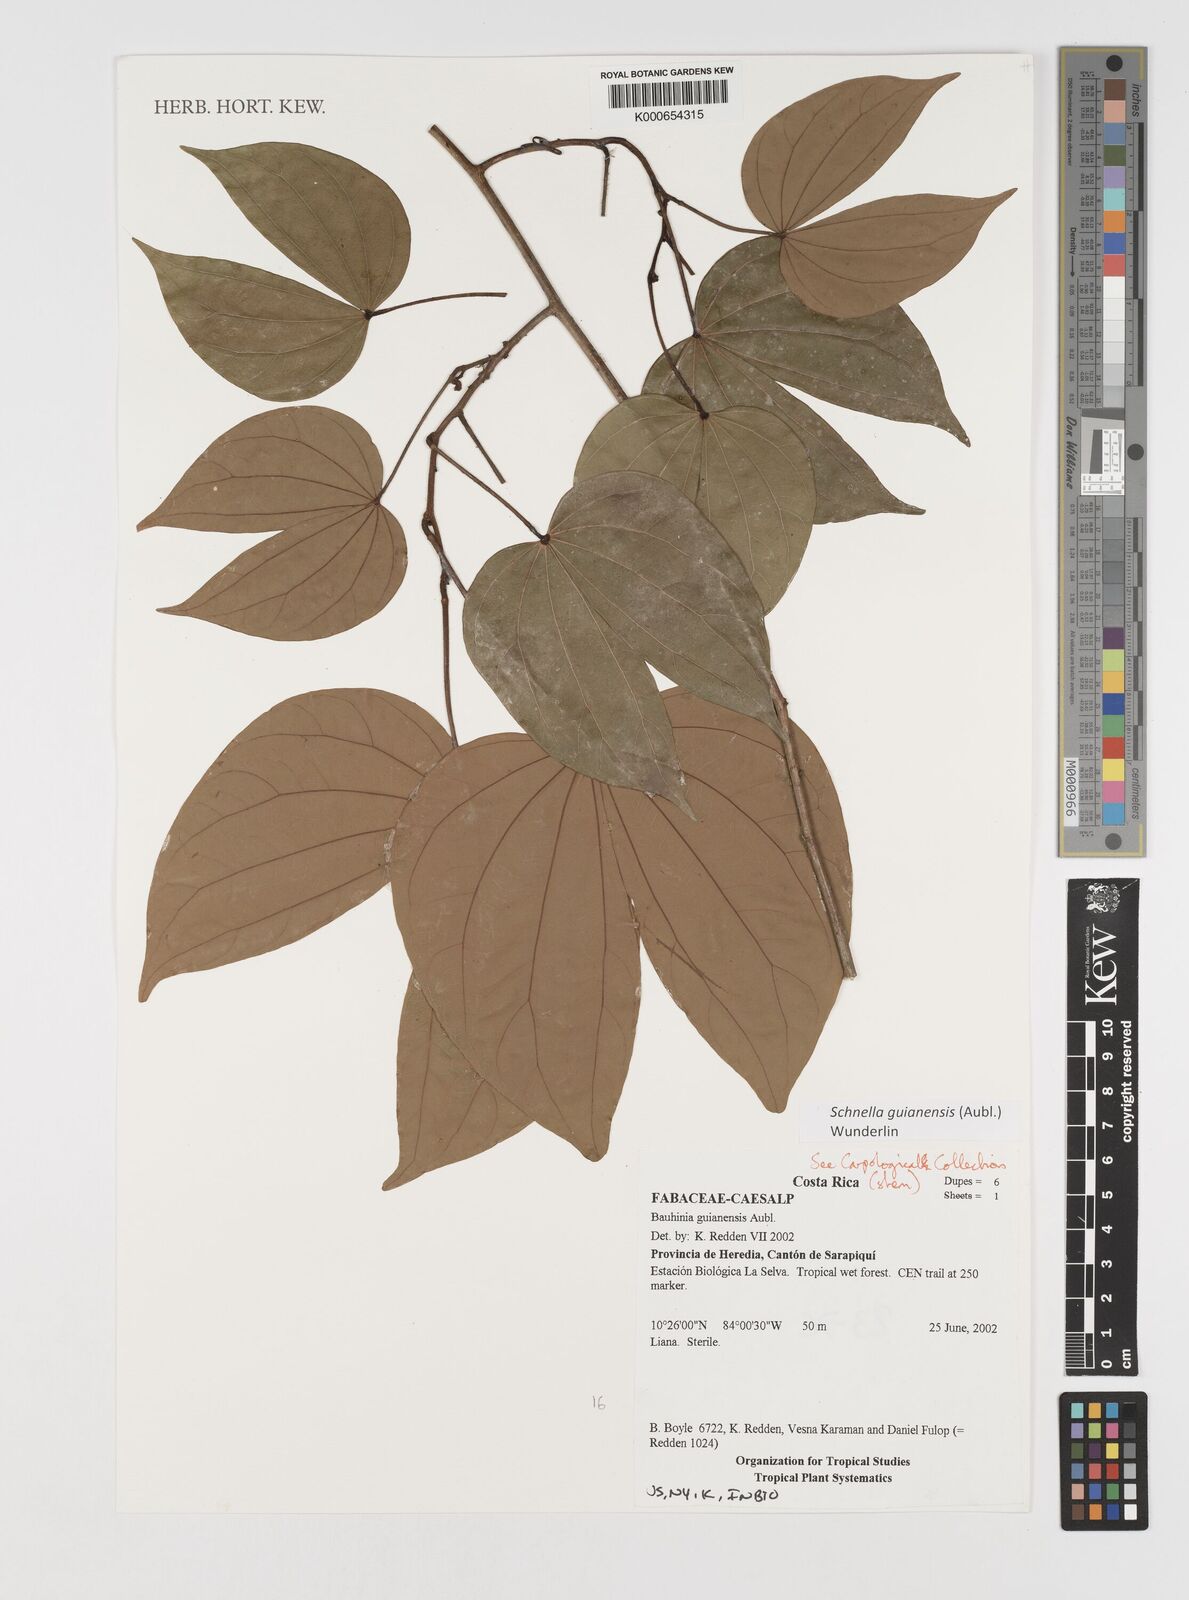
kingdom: Plantae
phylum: Tracheophyta
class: Magnoliopsida
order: Fabales
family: Fabaceae
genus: Schnella
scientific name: Schnella guianensis
